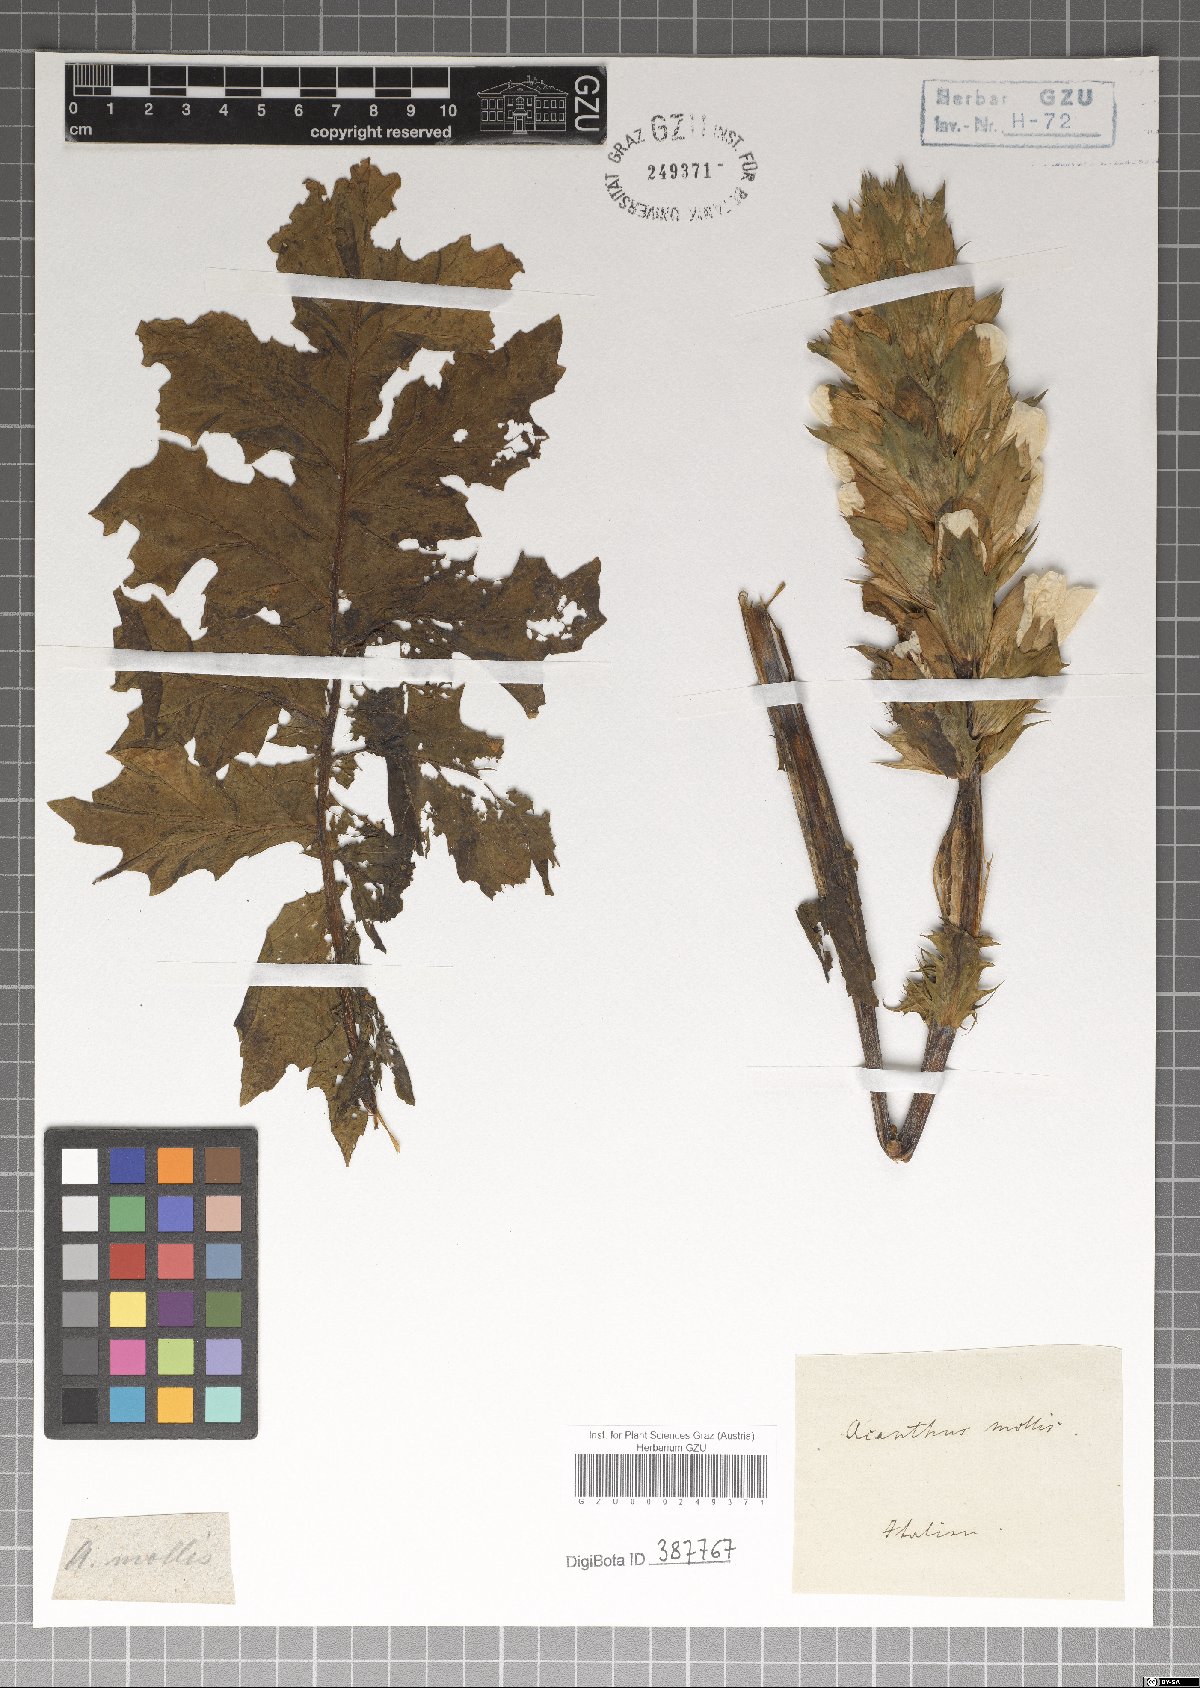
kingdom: Plantae
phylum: Tracheophyta
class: Magnoliopsida
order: Lamiales
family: Acanthaceae
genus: Acanthus
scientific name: Acanthus mollis
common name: Bear's-breech
